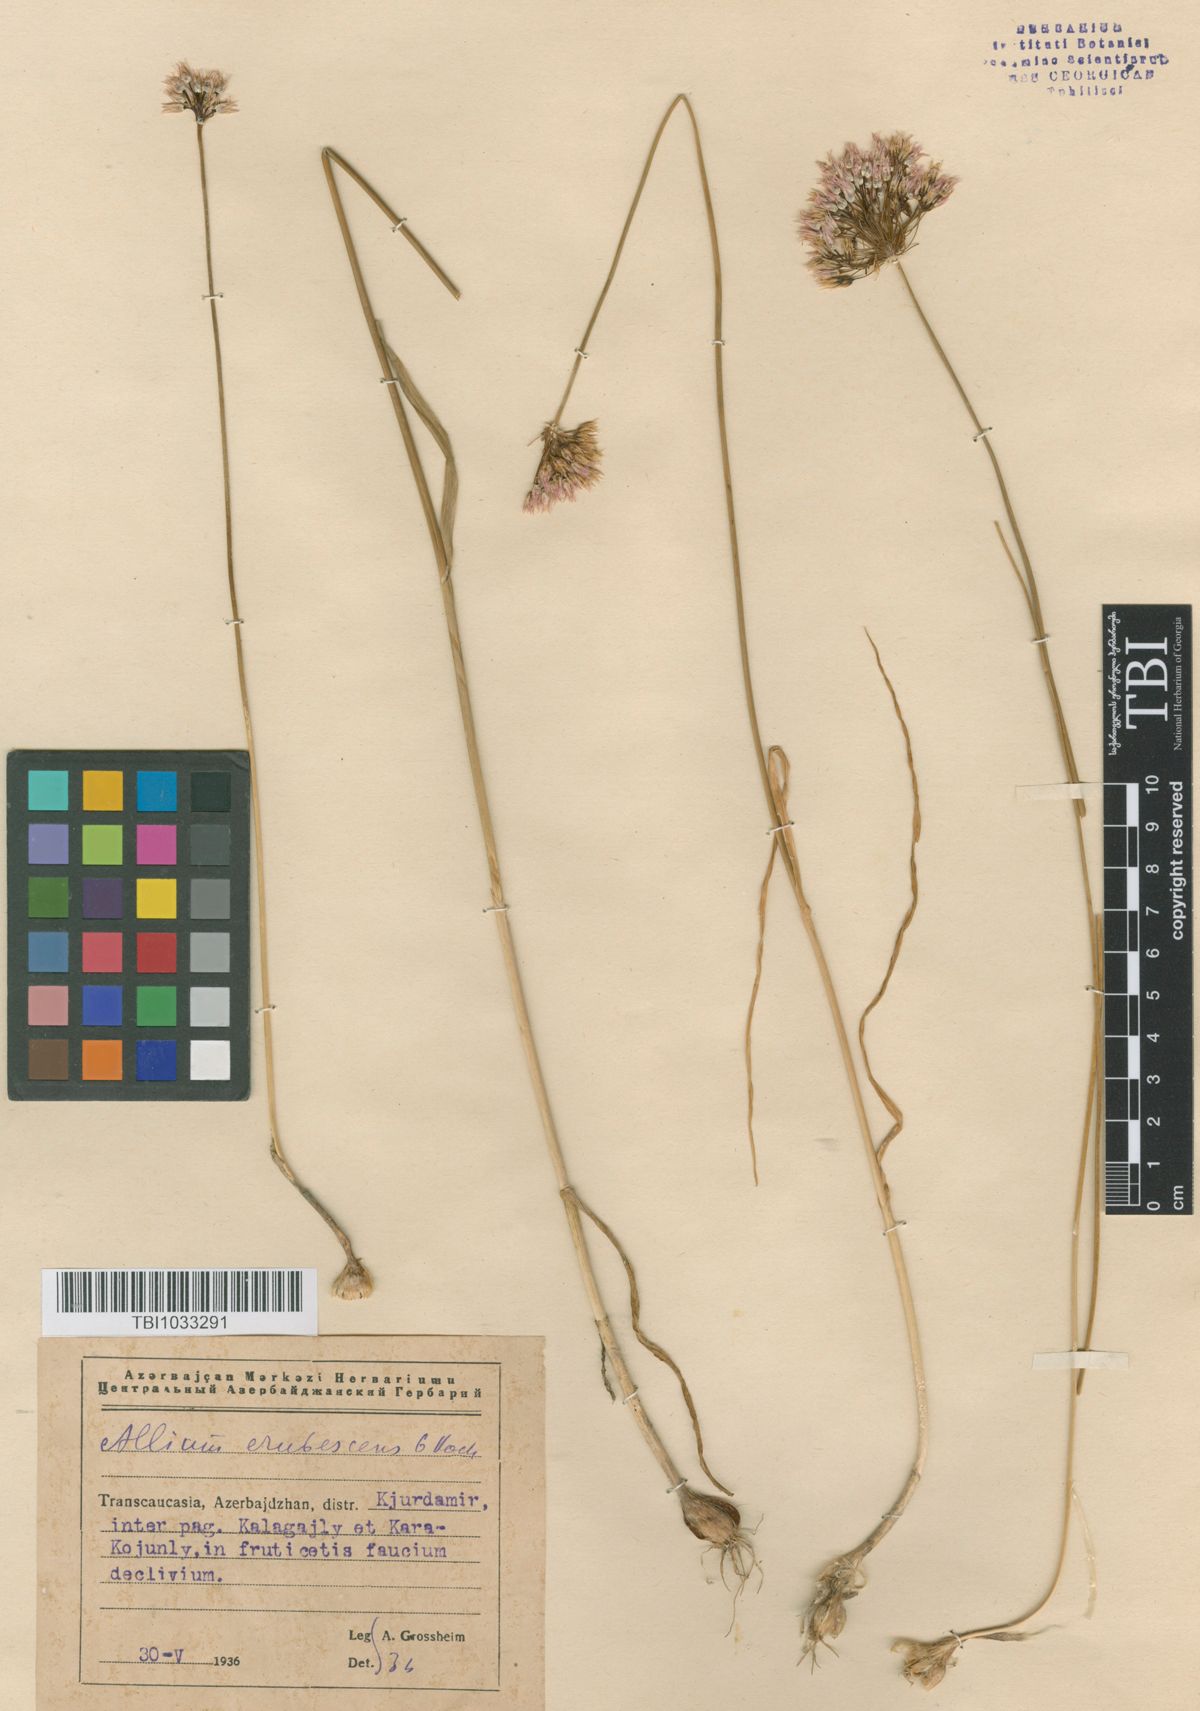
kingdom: Plantae
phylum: Tracheophyta
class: Liliopsida
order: Asparagales
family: Amaryllidaceae
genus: Allium
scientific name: Allium erubescens
